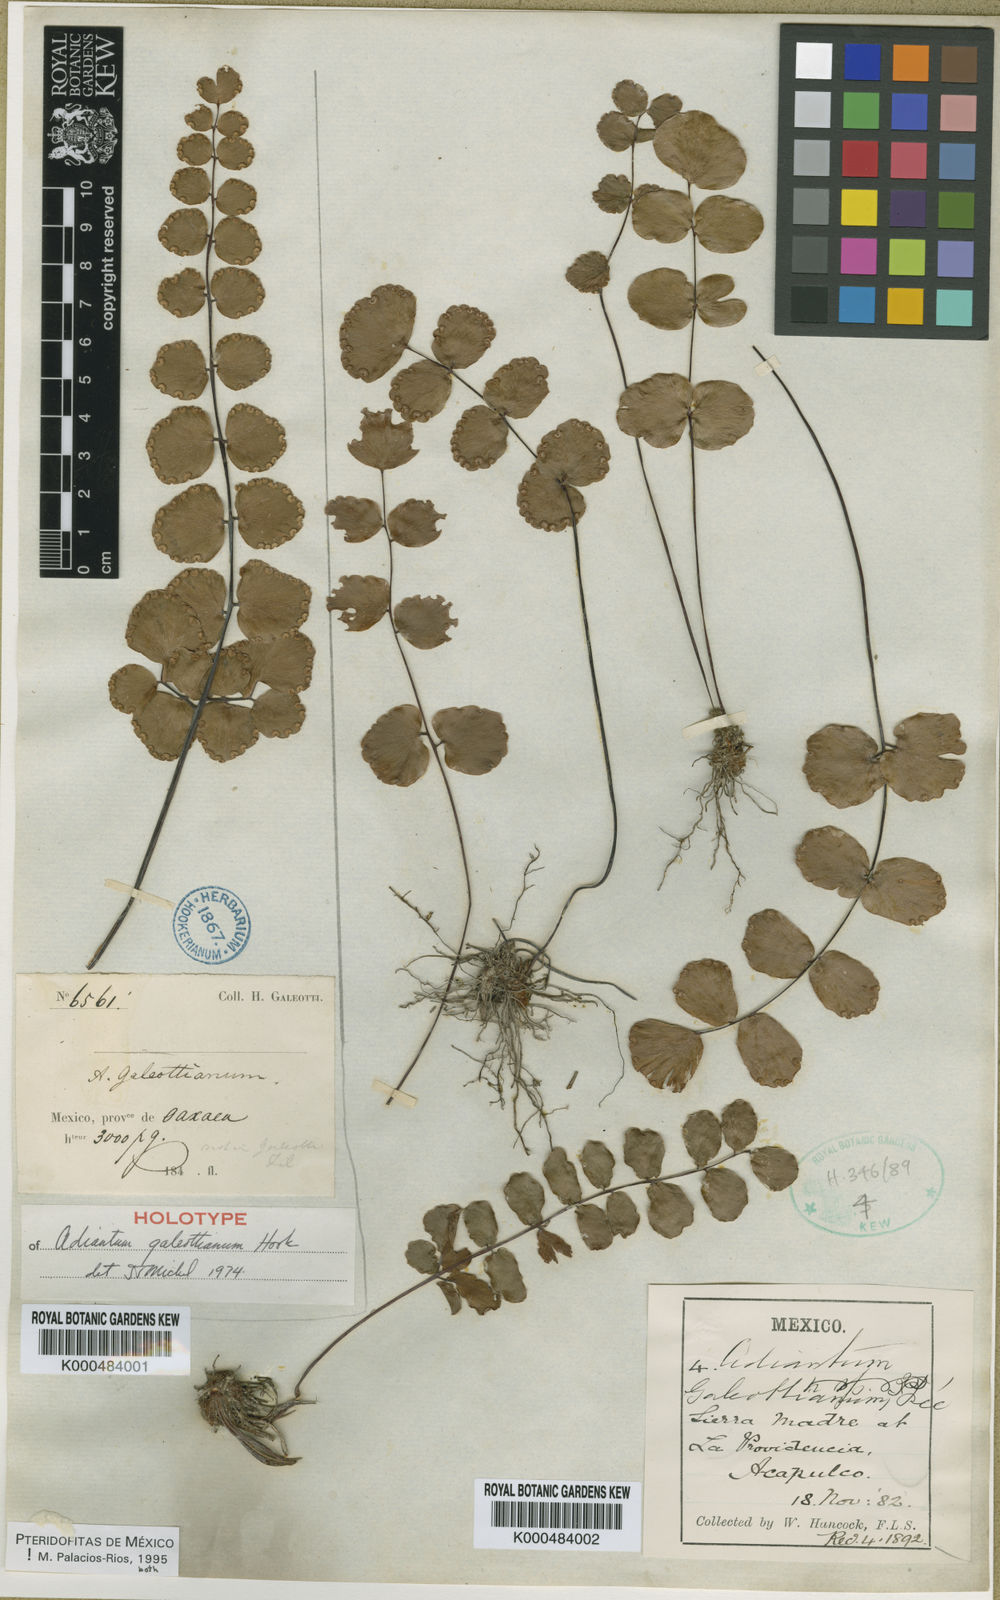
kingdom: Plantae
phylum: Tracheophyta
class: Polypodiopsida
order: Polypodiales
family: Pteridaceae
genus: Adiantum
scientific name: Adiantum galeottianum
